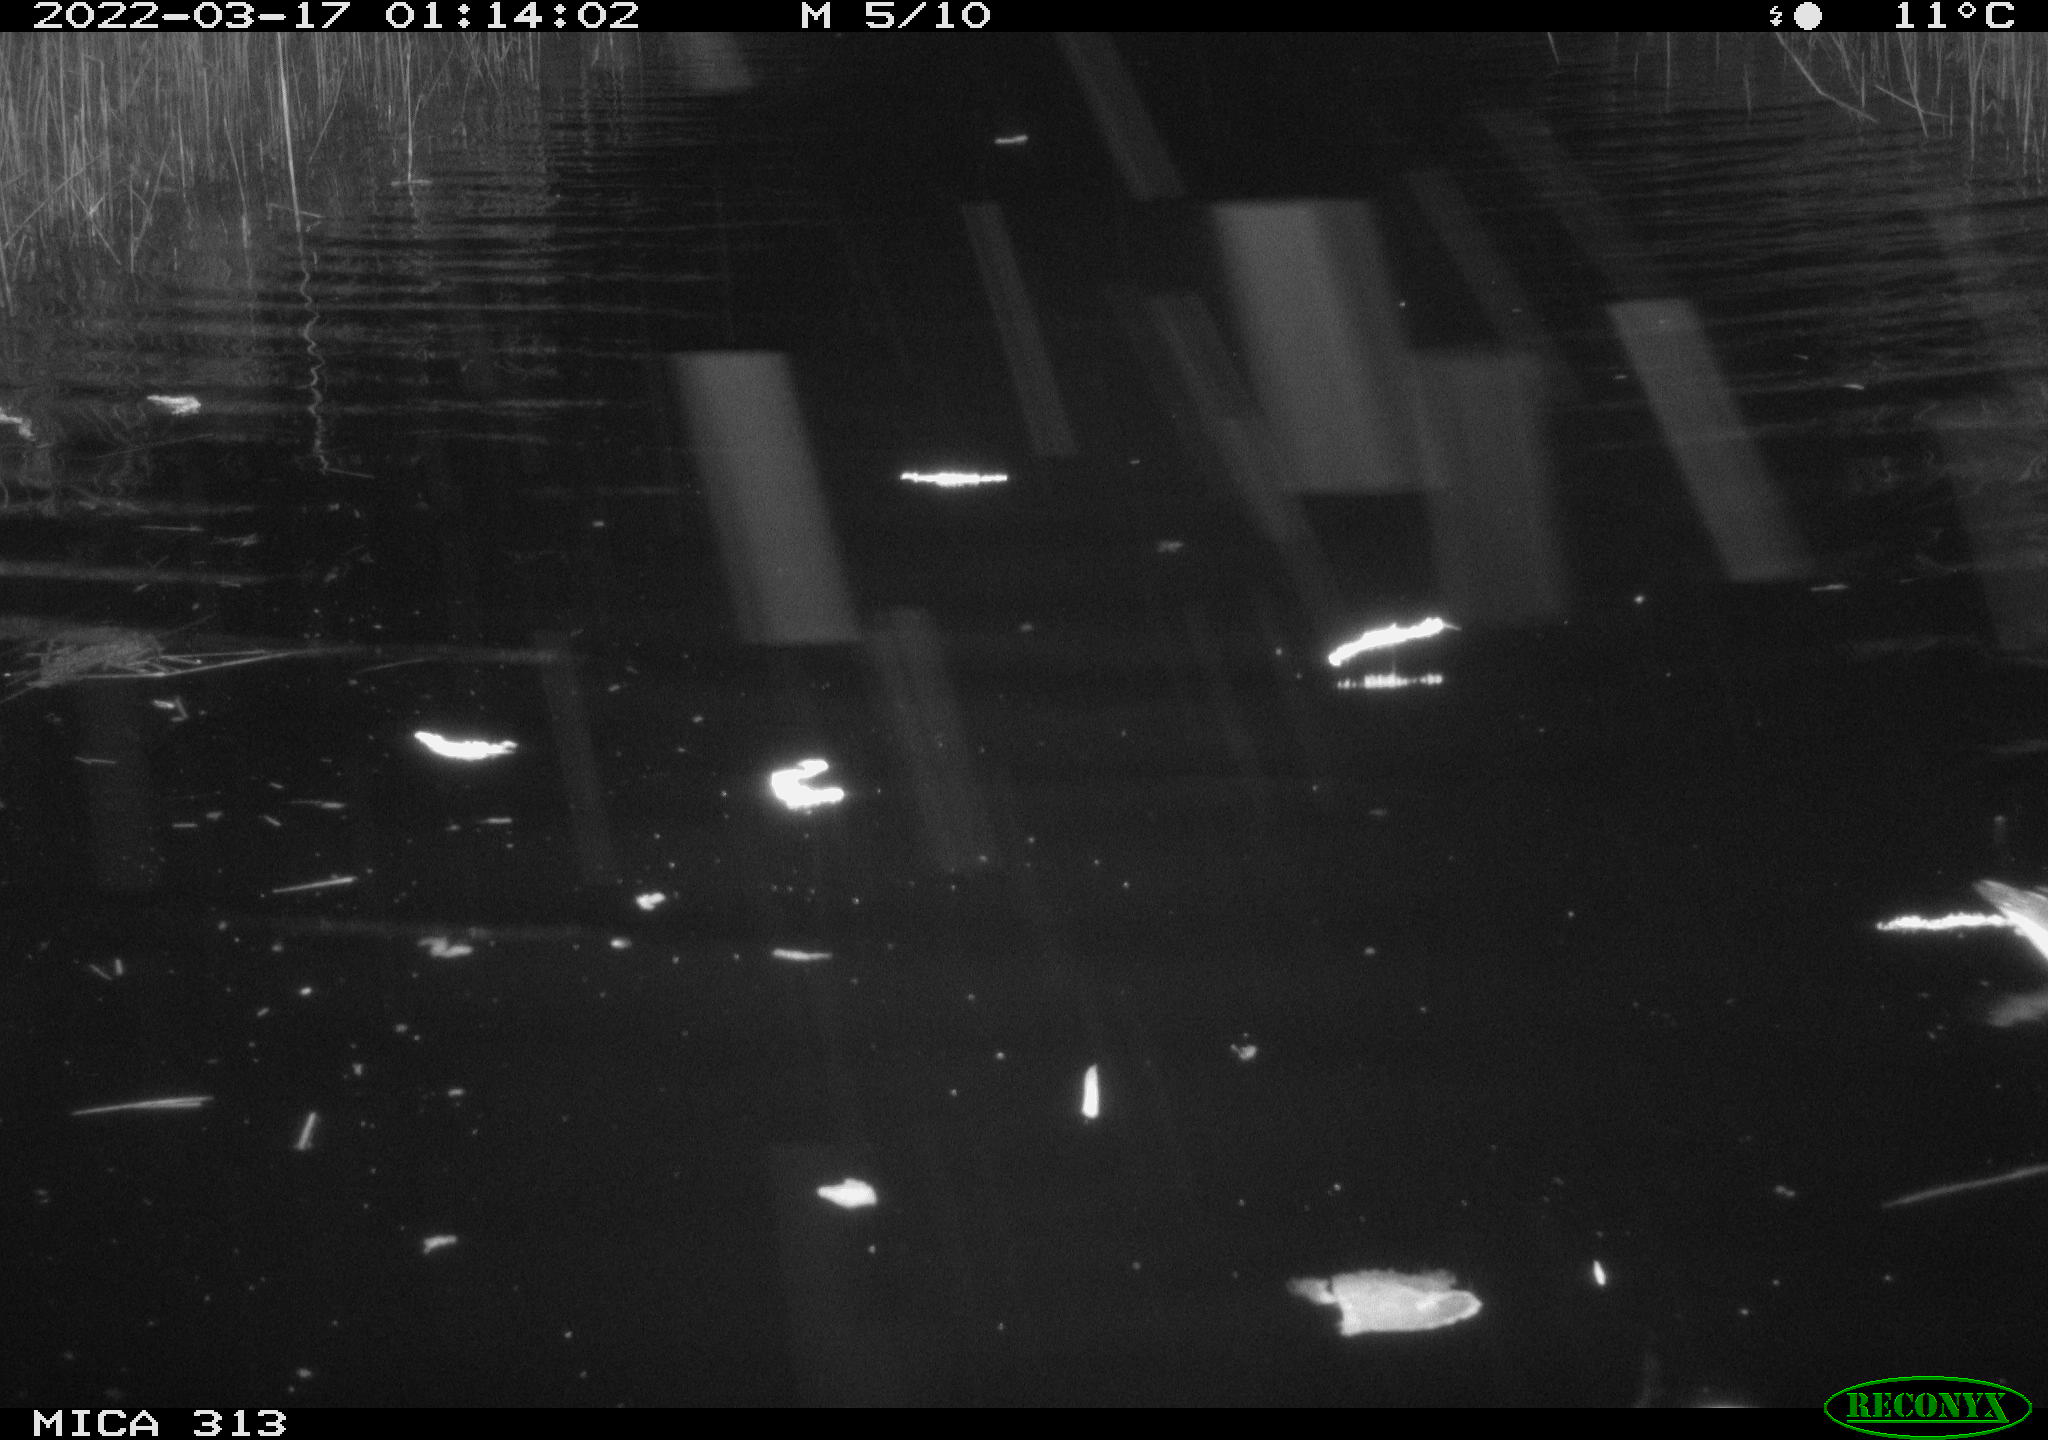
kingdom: Animalia
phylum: Chordata
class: Aves
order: Gruiformes
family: Rallidae
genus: Gallinula
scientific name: Gallinula chloropus
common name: Common moorhen
